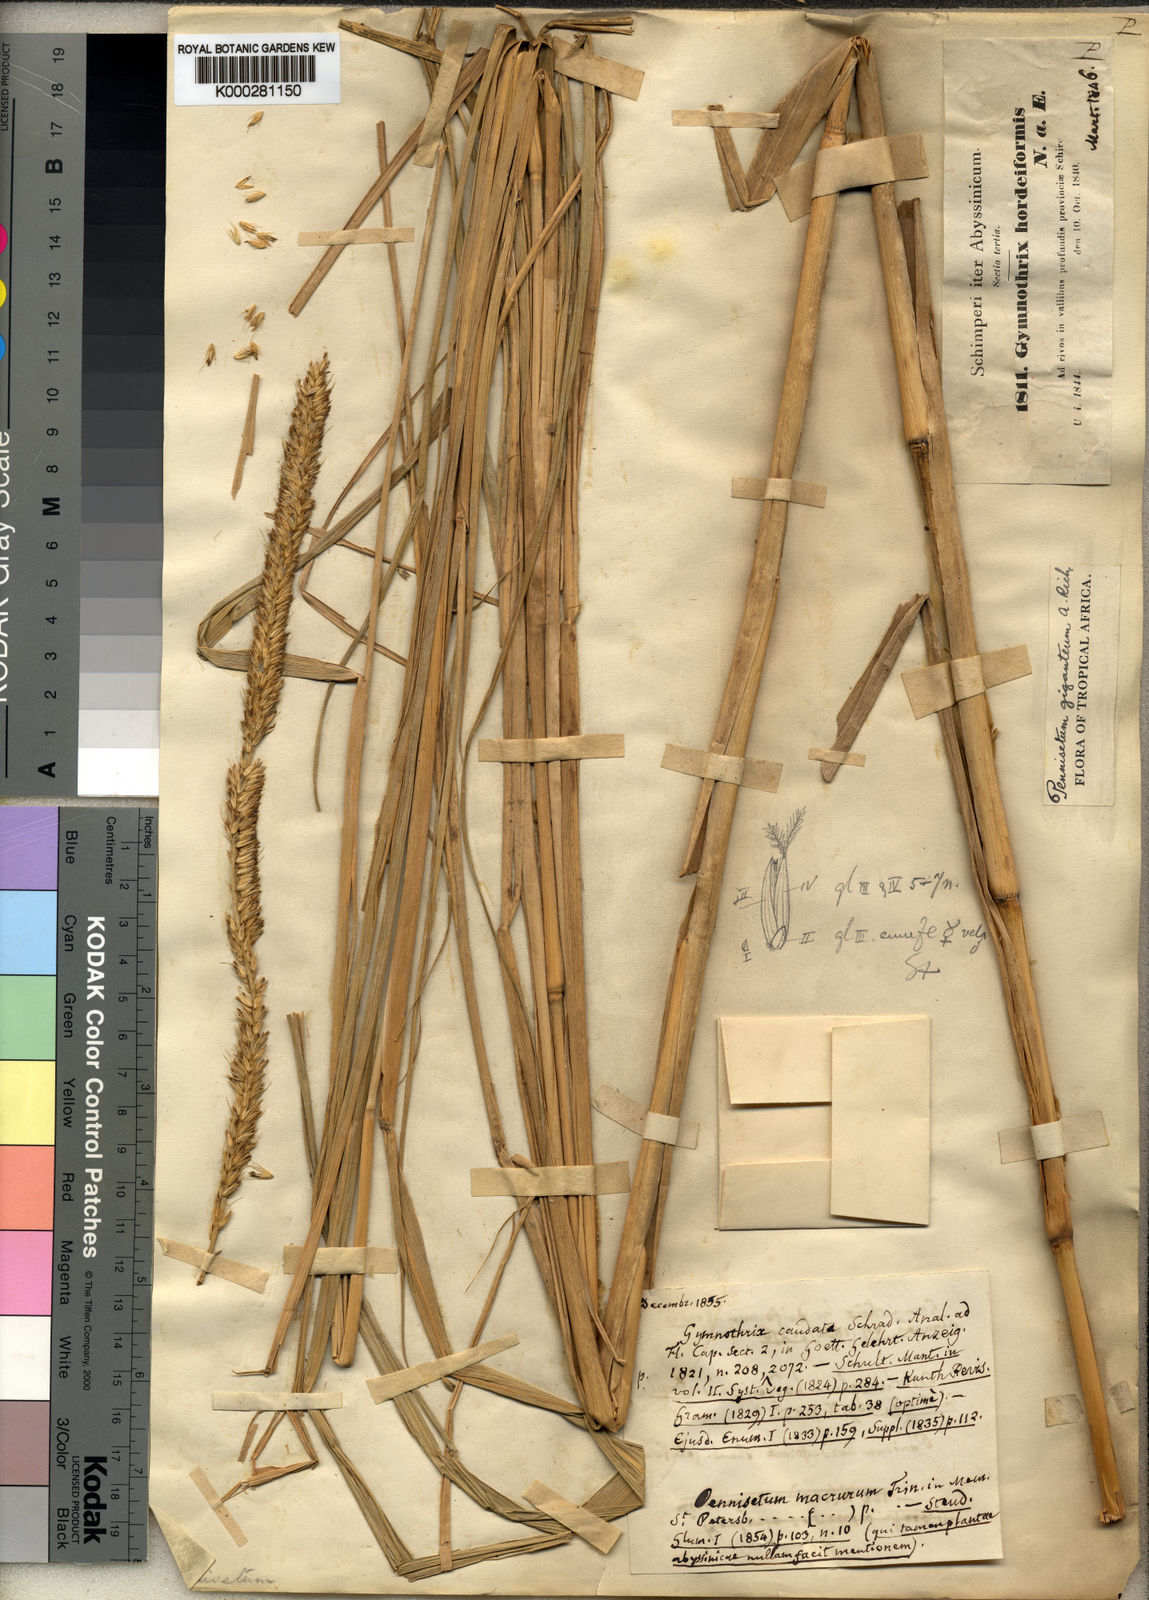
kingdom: Plantae
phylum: Tracheophyta
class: Liliopsida
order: Poales
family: Poaceae
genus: Cenchrus
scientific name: Cenchrus americanus
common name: Pearl millet
